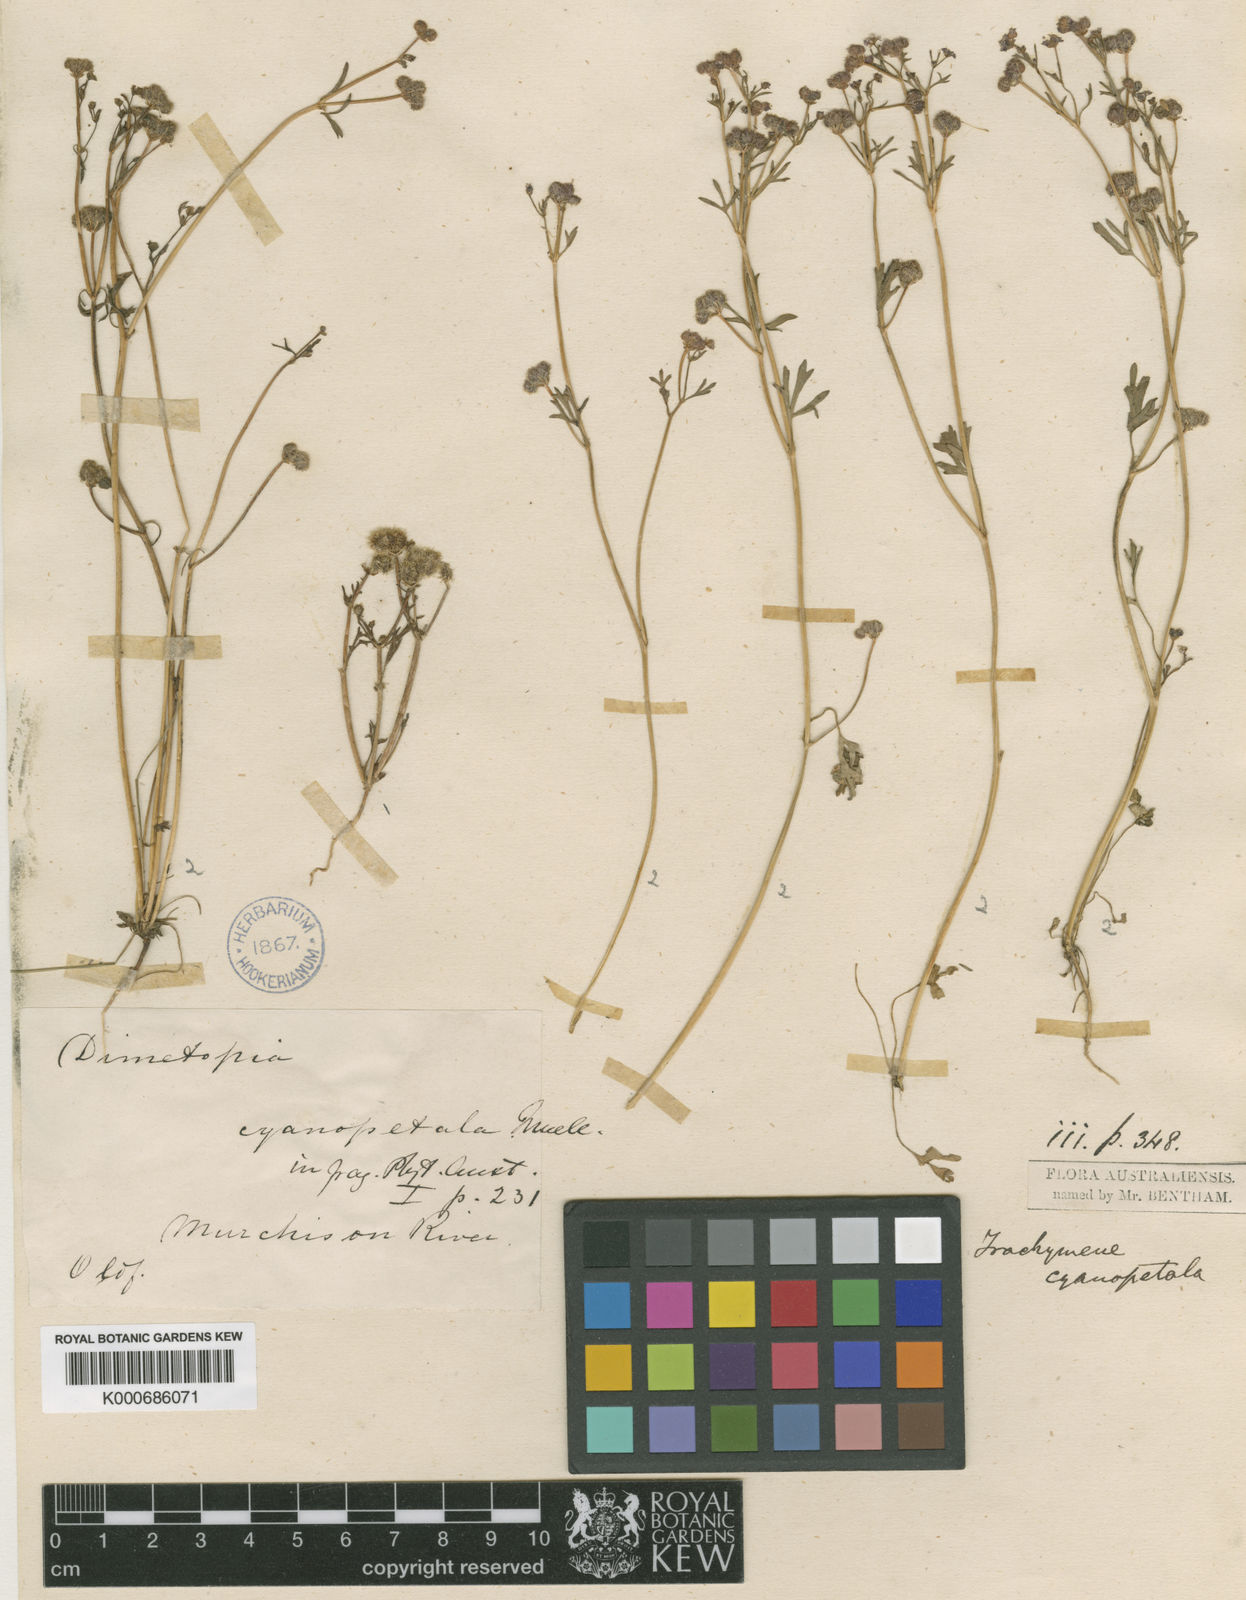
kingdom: Plantae
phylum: Tracheophyta
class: Magnoliopsida
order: Apiales
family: Araliaceae
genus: Trachymene
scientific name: Trachymene cyanopetala
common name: Purple trachymene
